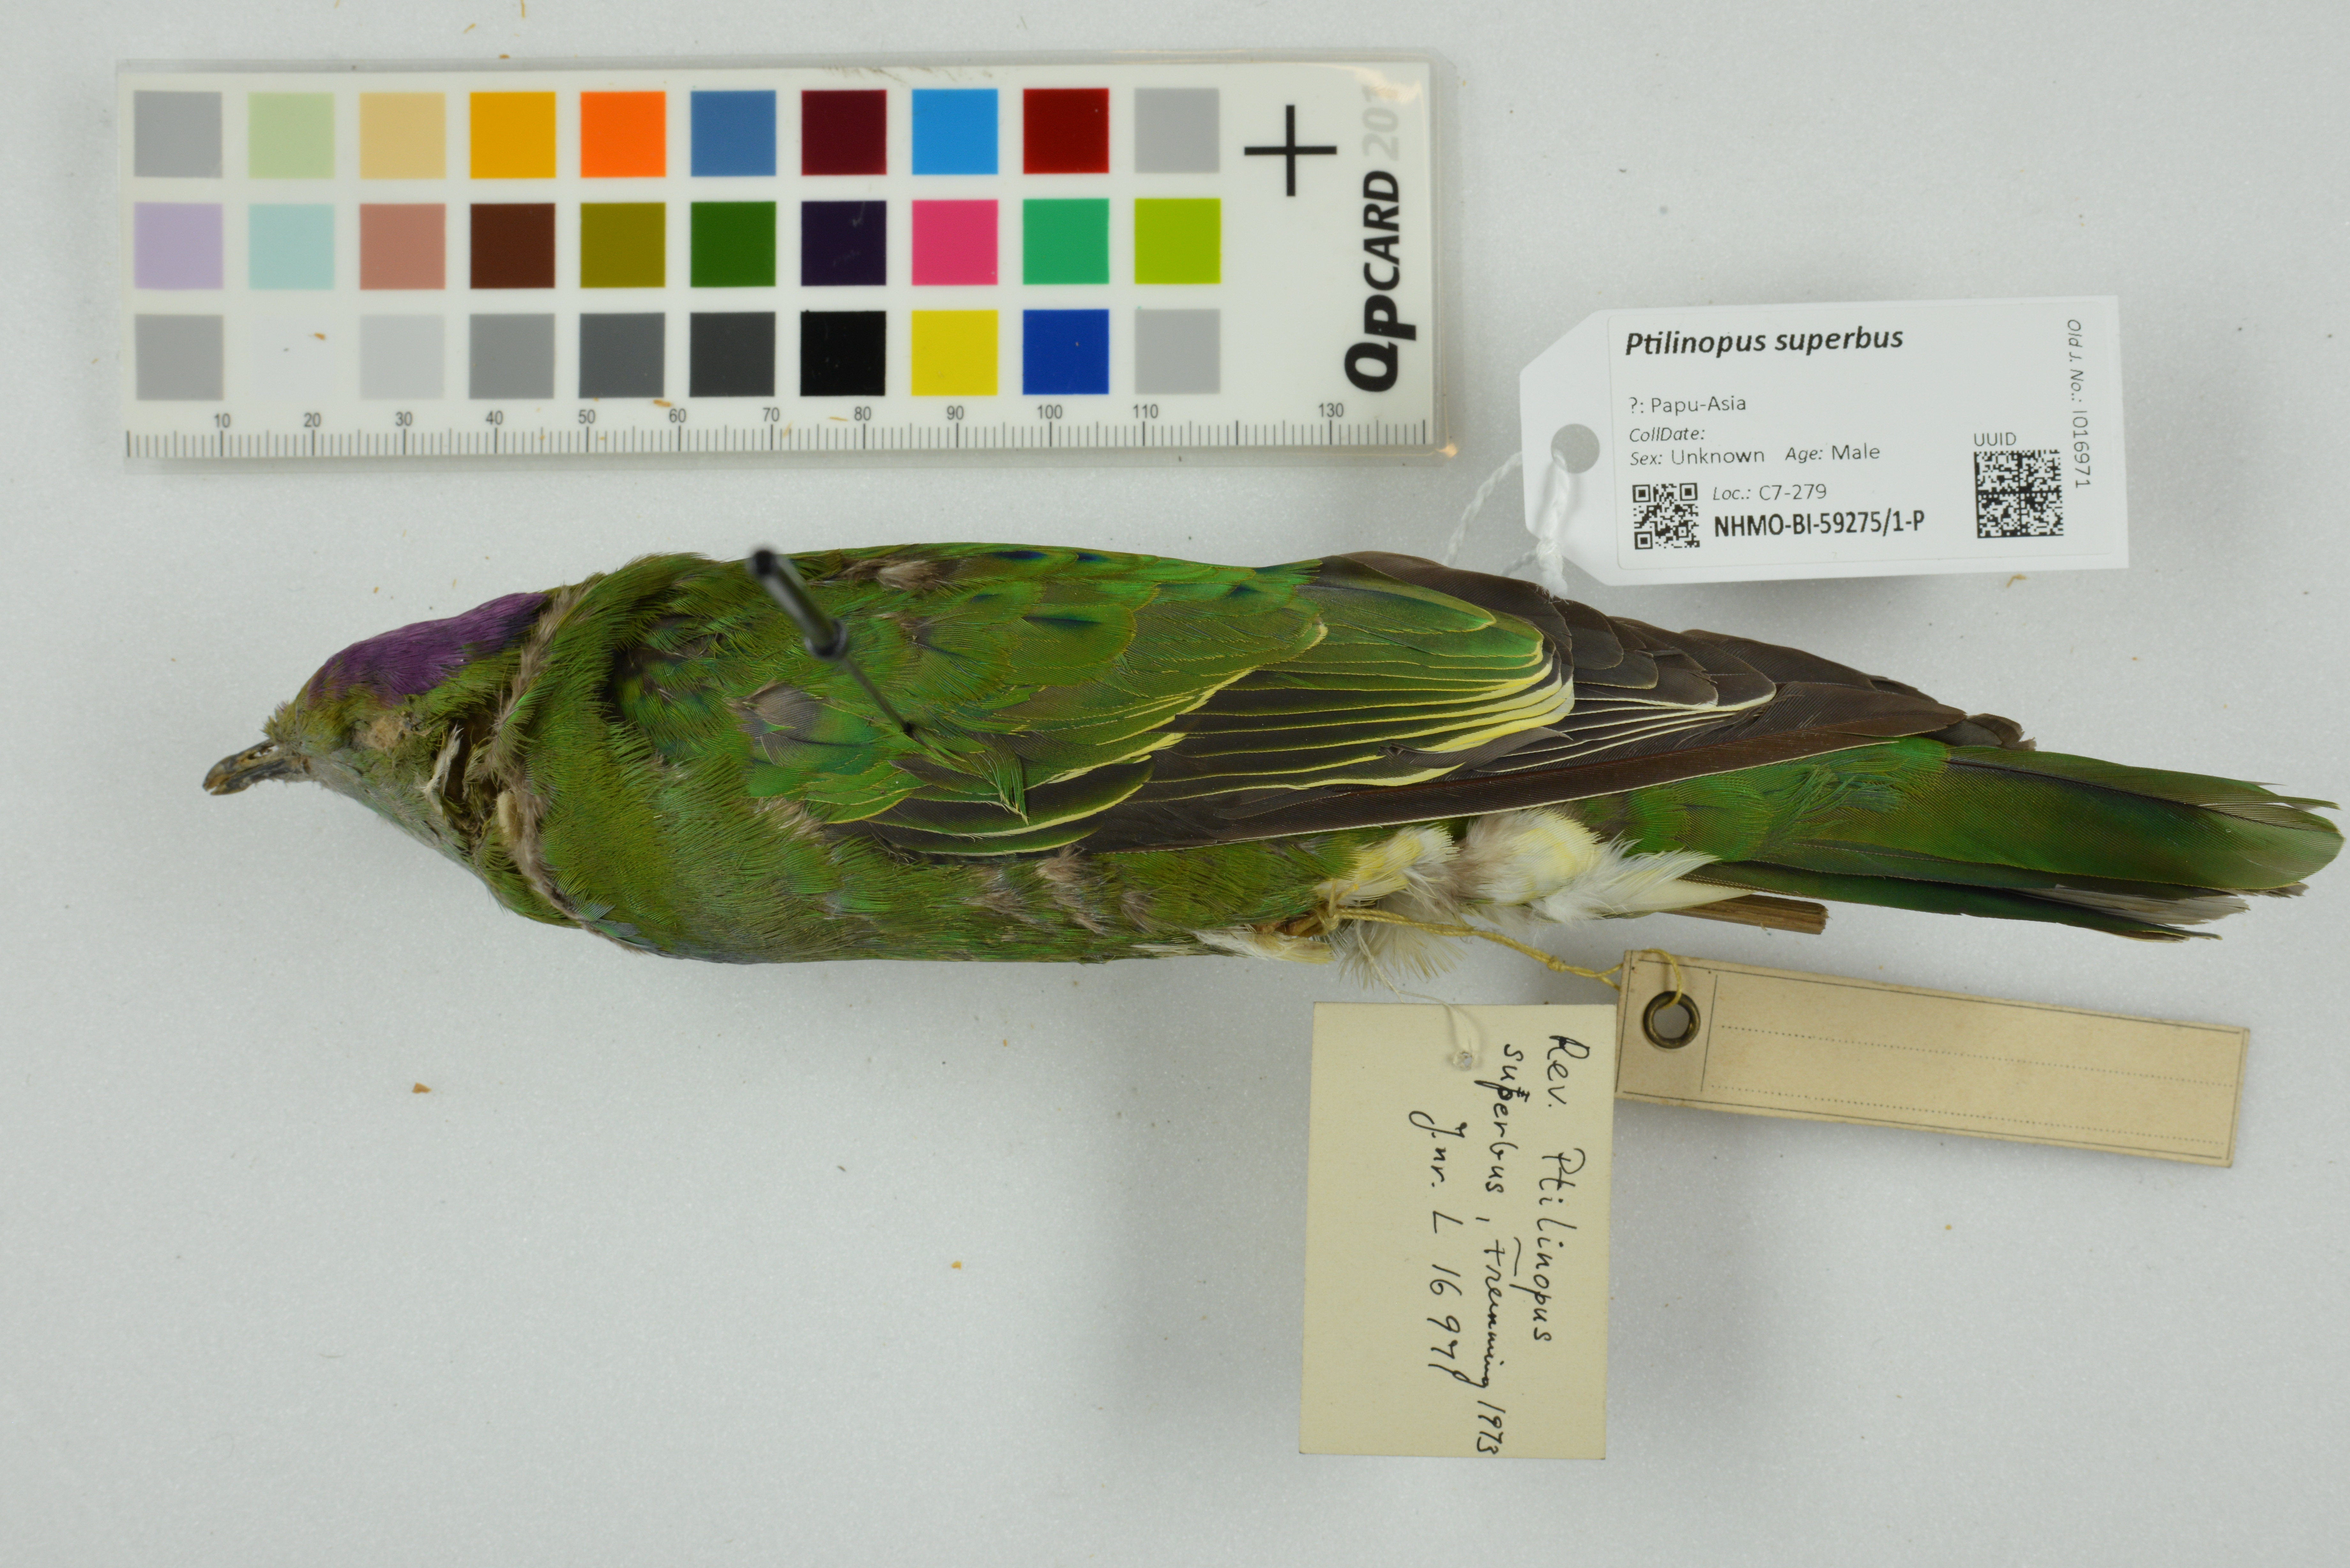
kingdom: Animalia
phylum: Chordata
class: Aves
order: Columbiformes
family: Columbidae
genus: Ptilinopus
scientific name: Ptilinopus superbus
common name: Superb fruit dove
